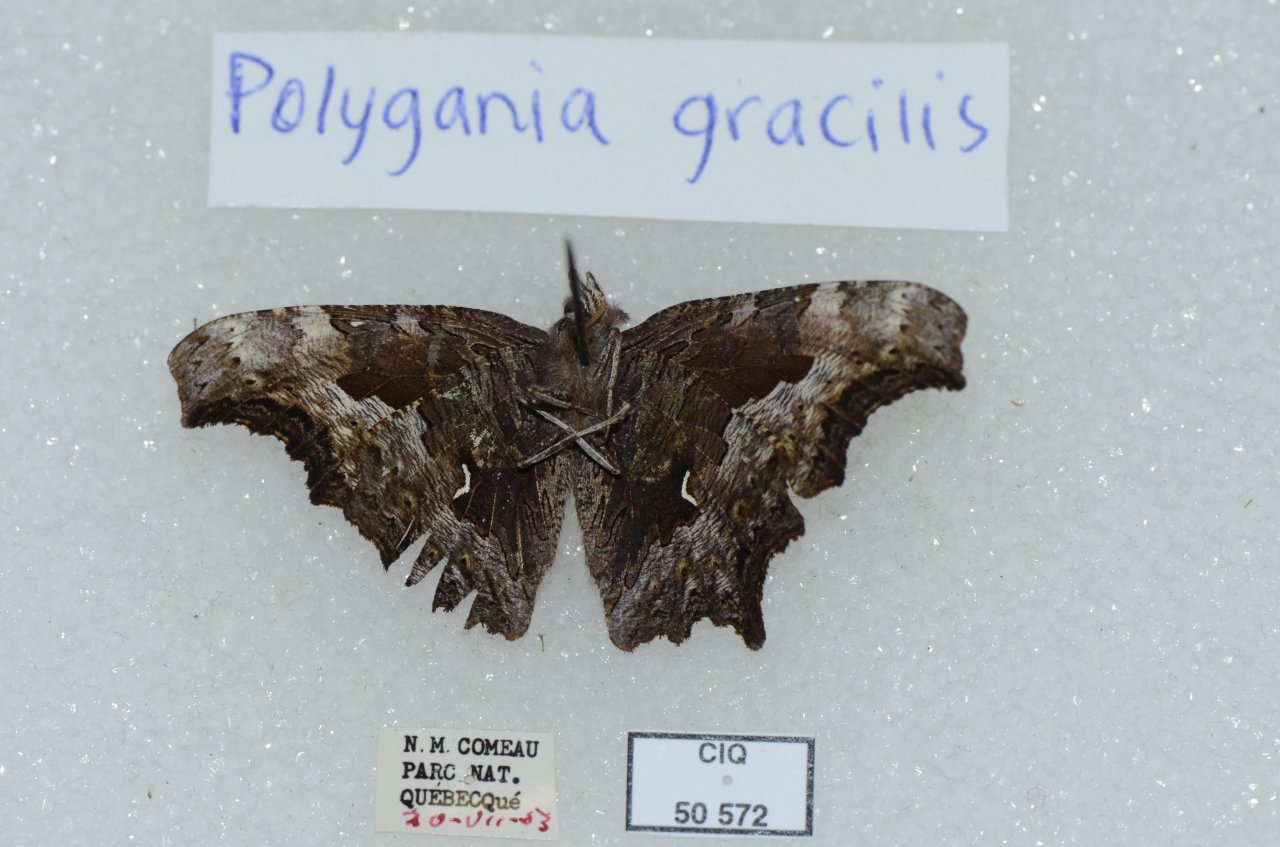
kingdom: Animalia
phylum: Arthropoda
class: Insecta
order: Lepidoptera
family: Nymphalidae
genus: Polygonia
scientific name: Polygonia gracilis
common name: Hoary Comma
